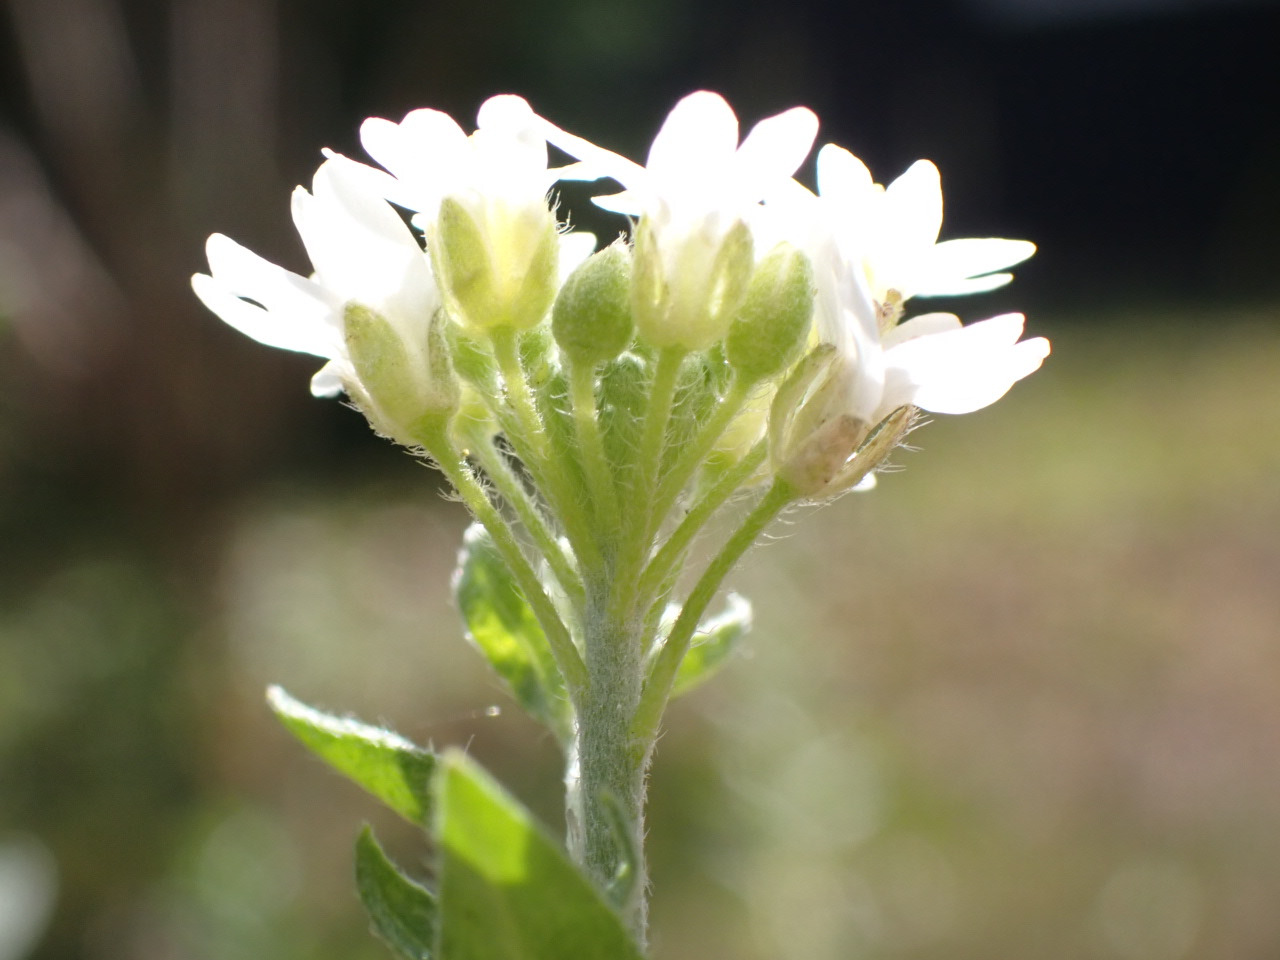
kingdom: Plantae
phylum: Tracheophyta
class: Magnoliopsida
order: Brassicales
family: Brassicaceae
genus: Berteroa
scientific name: Berteroa incana
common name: Kløvplade
